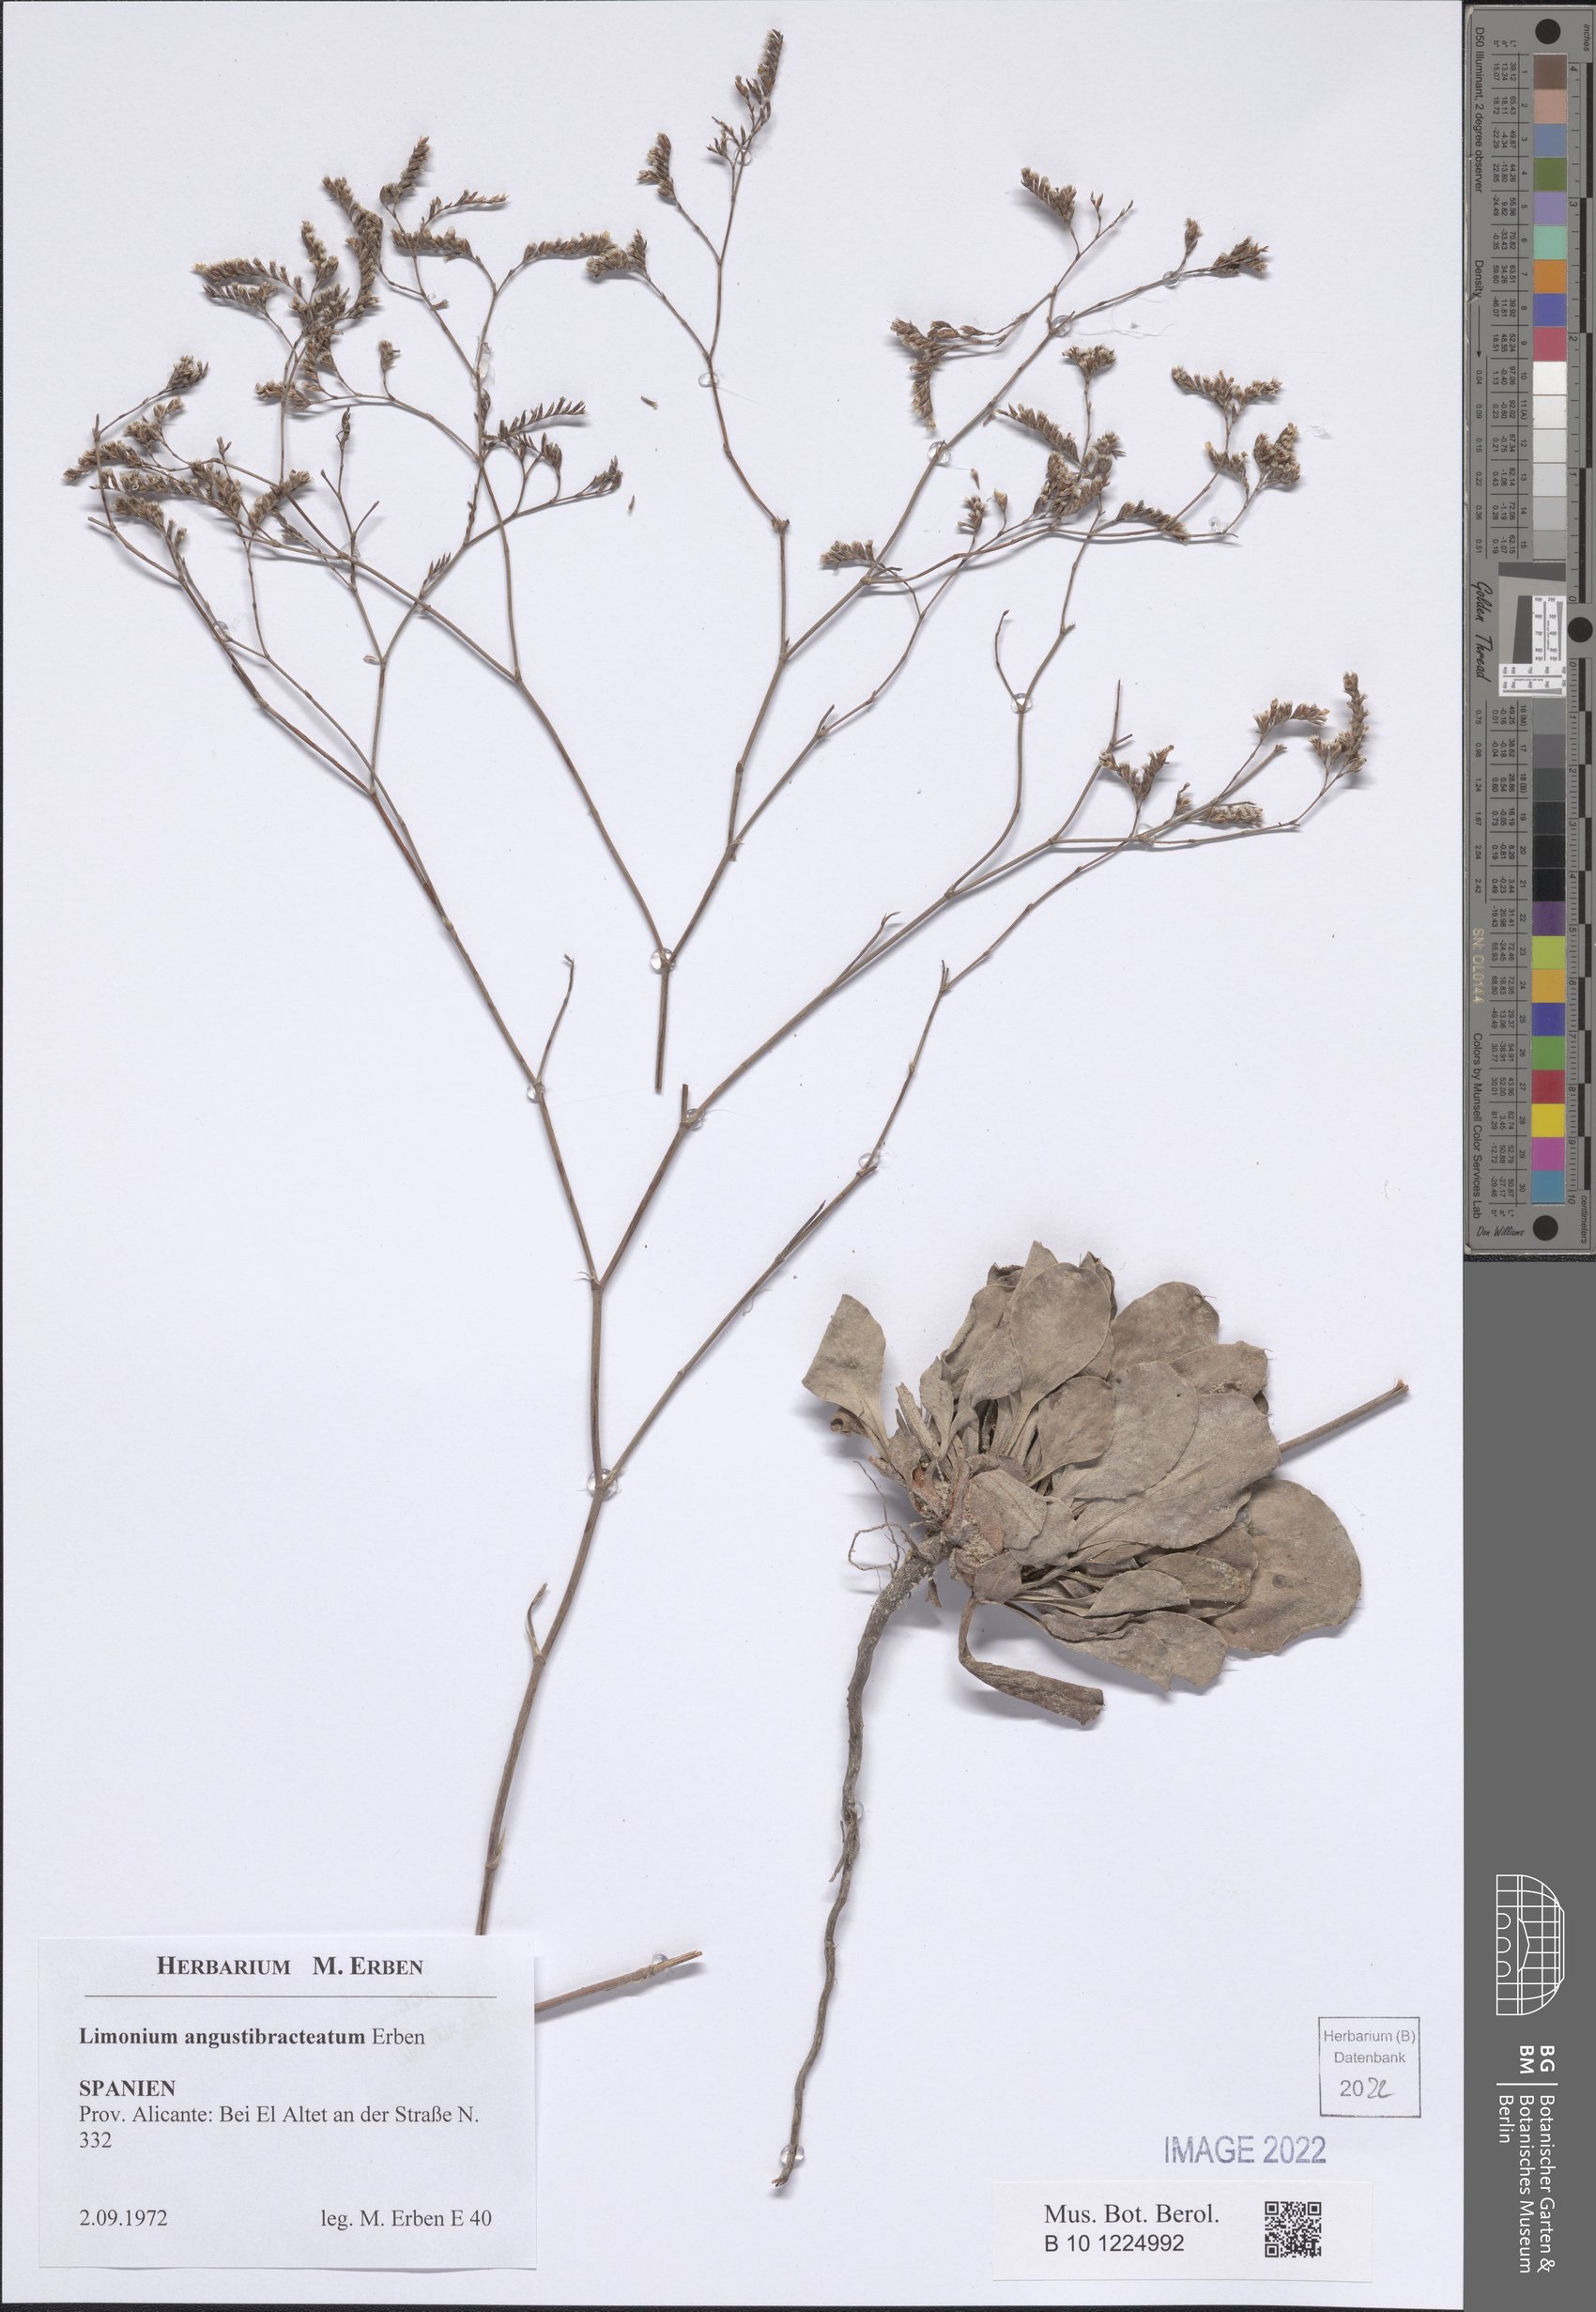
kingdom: Plantae
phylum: Tracheophyta
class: Magnoliopsida
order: Caryophyllales
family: Plumbaginaceae
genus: Limonium
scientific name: Limonium angustibracteatum
